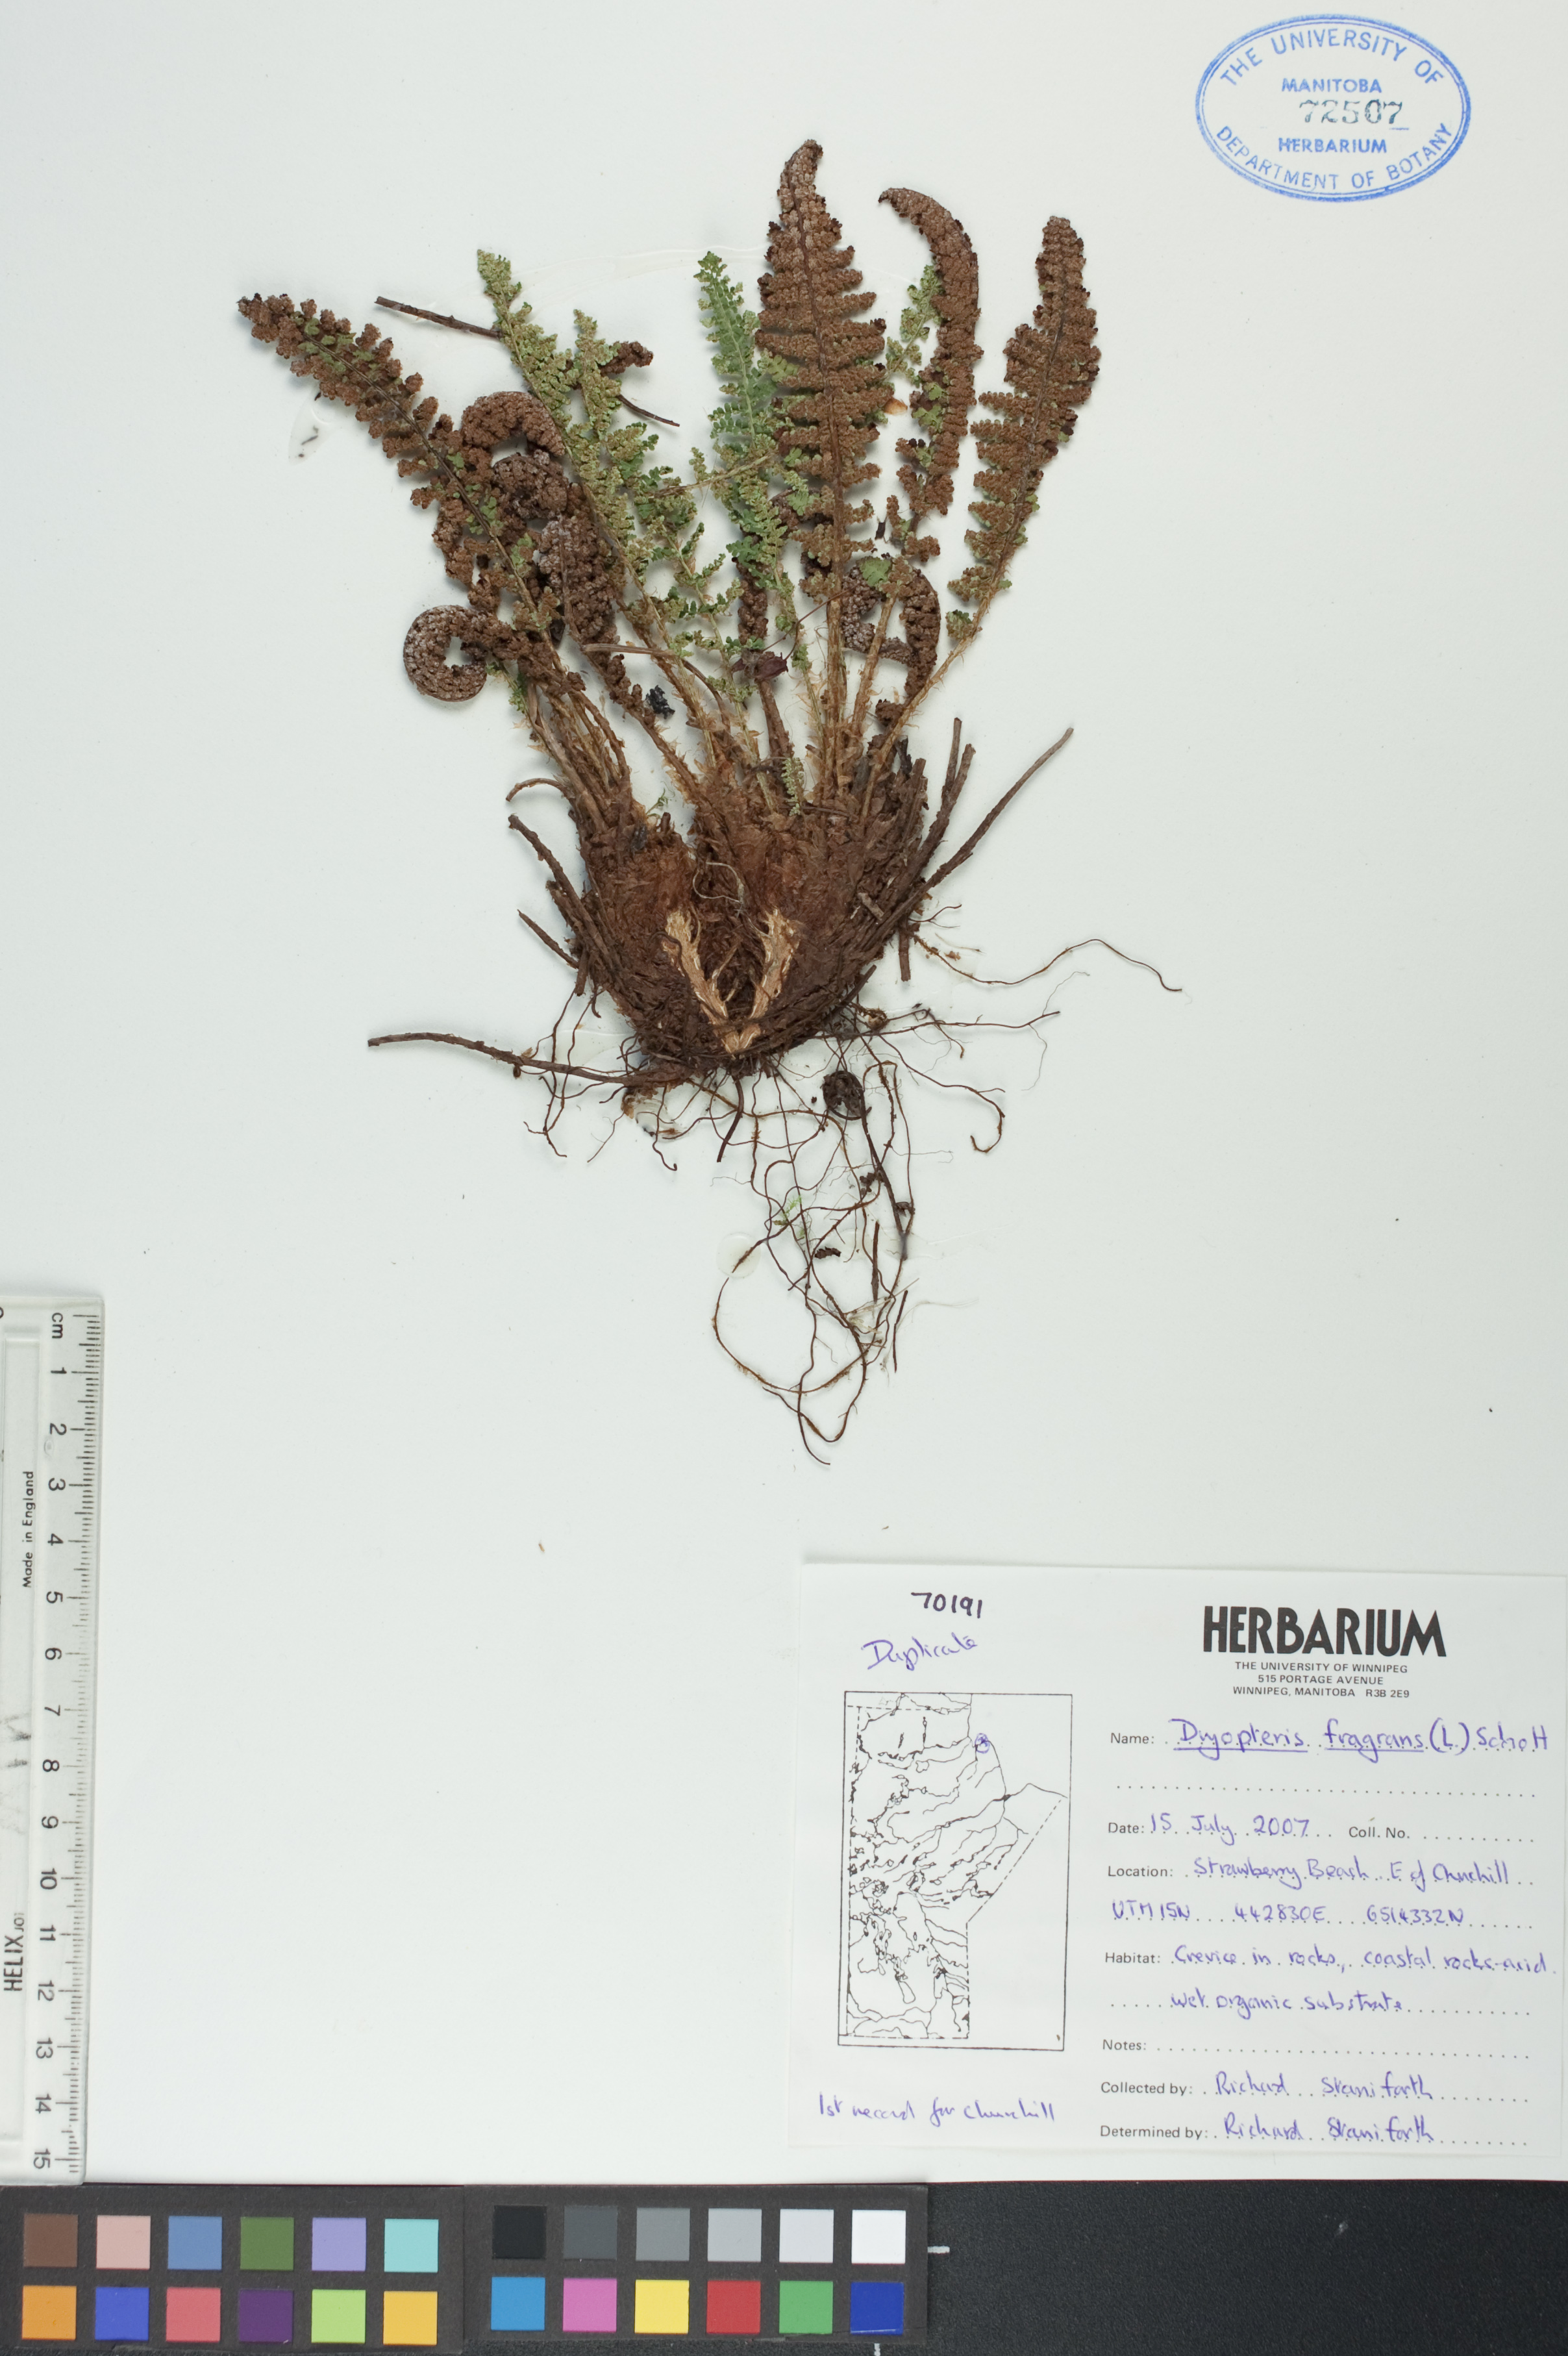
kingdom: Plantae
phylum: Tracheophyta
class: Polypodiopsida
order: Polypodiales
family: Dryopteridaceae
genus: Dryopteris
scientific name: Dryopteris fragrans
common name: Fragrant wood fern
